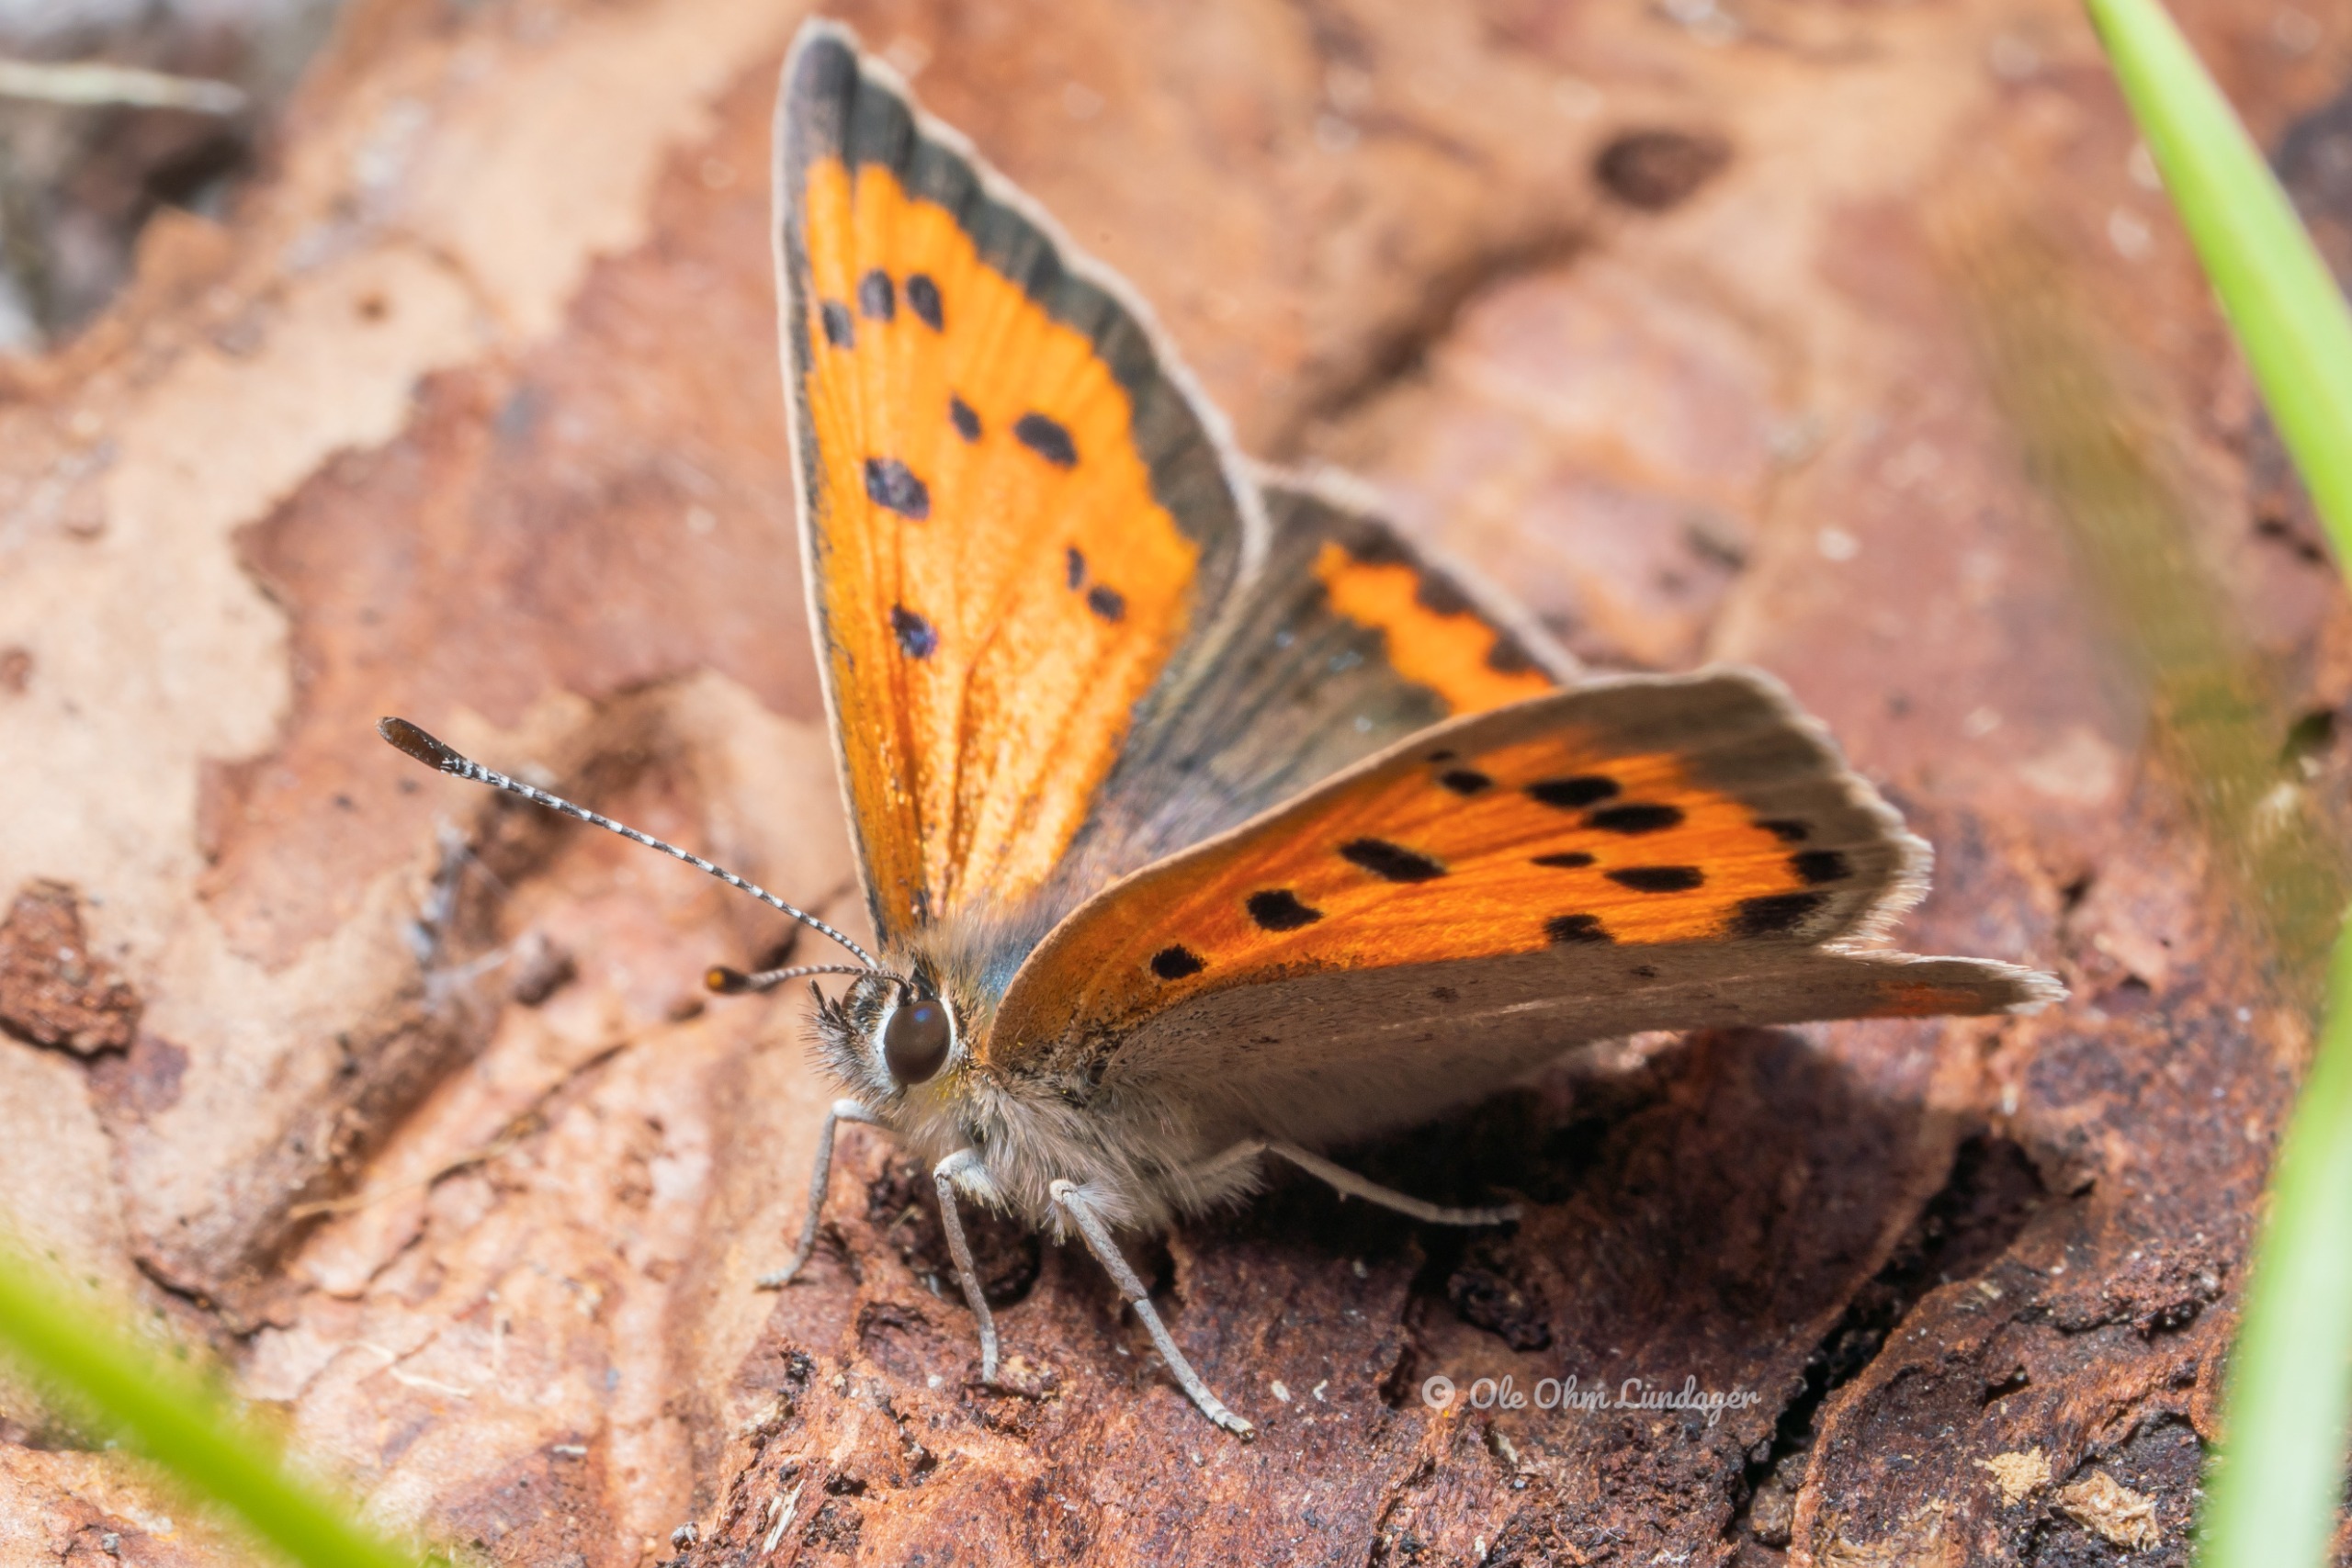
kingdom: Animalia
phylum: Arthropoda
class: Insecta
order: Lepidoptera
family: Lycaenidae
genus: Lycaena
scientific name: Lycaena phlaeas
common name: Lille ildfugl
